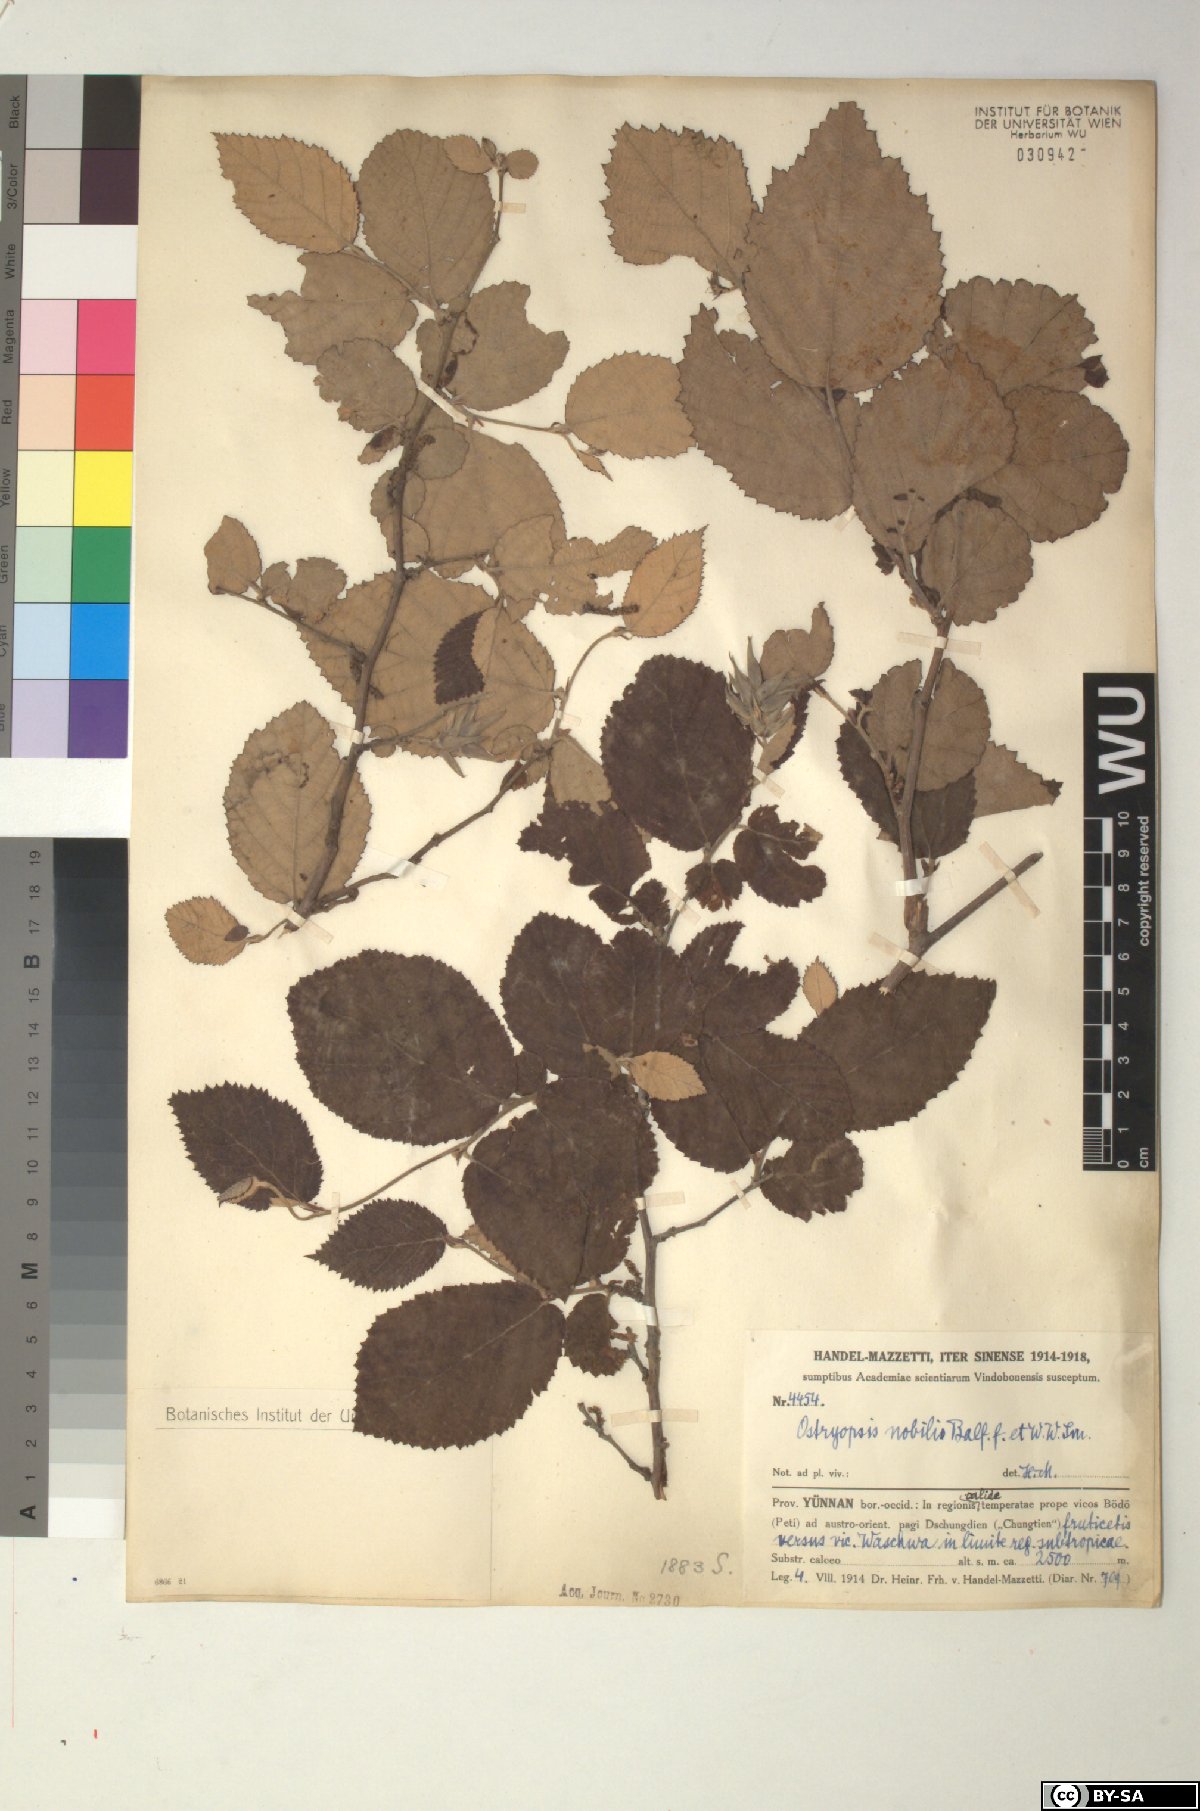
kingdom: Plantae
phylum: Tracheophyta
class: Magnoliopsida
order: Fagales
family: Betulaceae
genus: Ostryopsis
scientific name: Ostryopsis nobilis
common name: Yunnan tiger hazel
